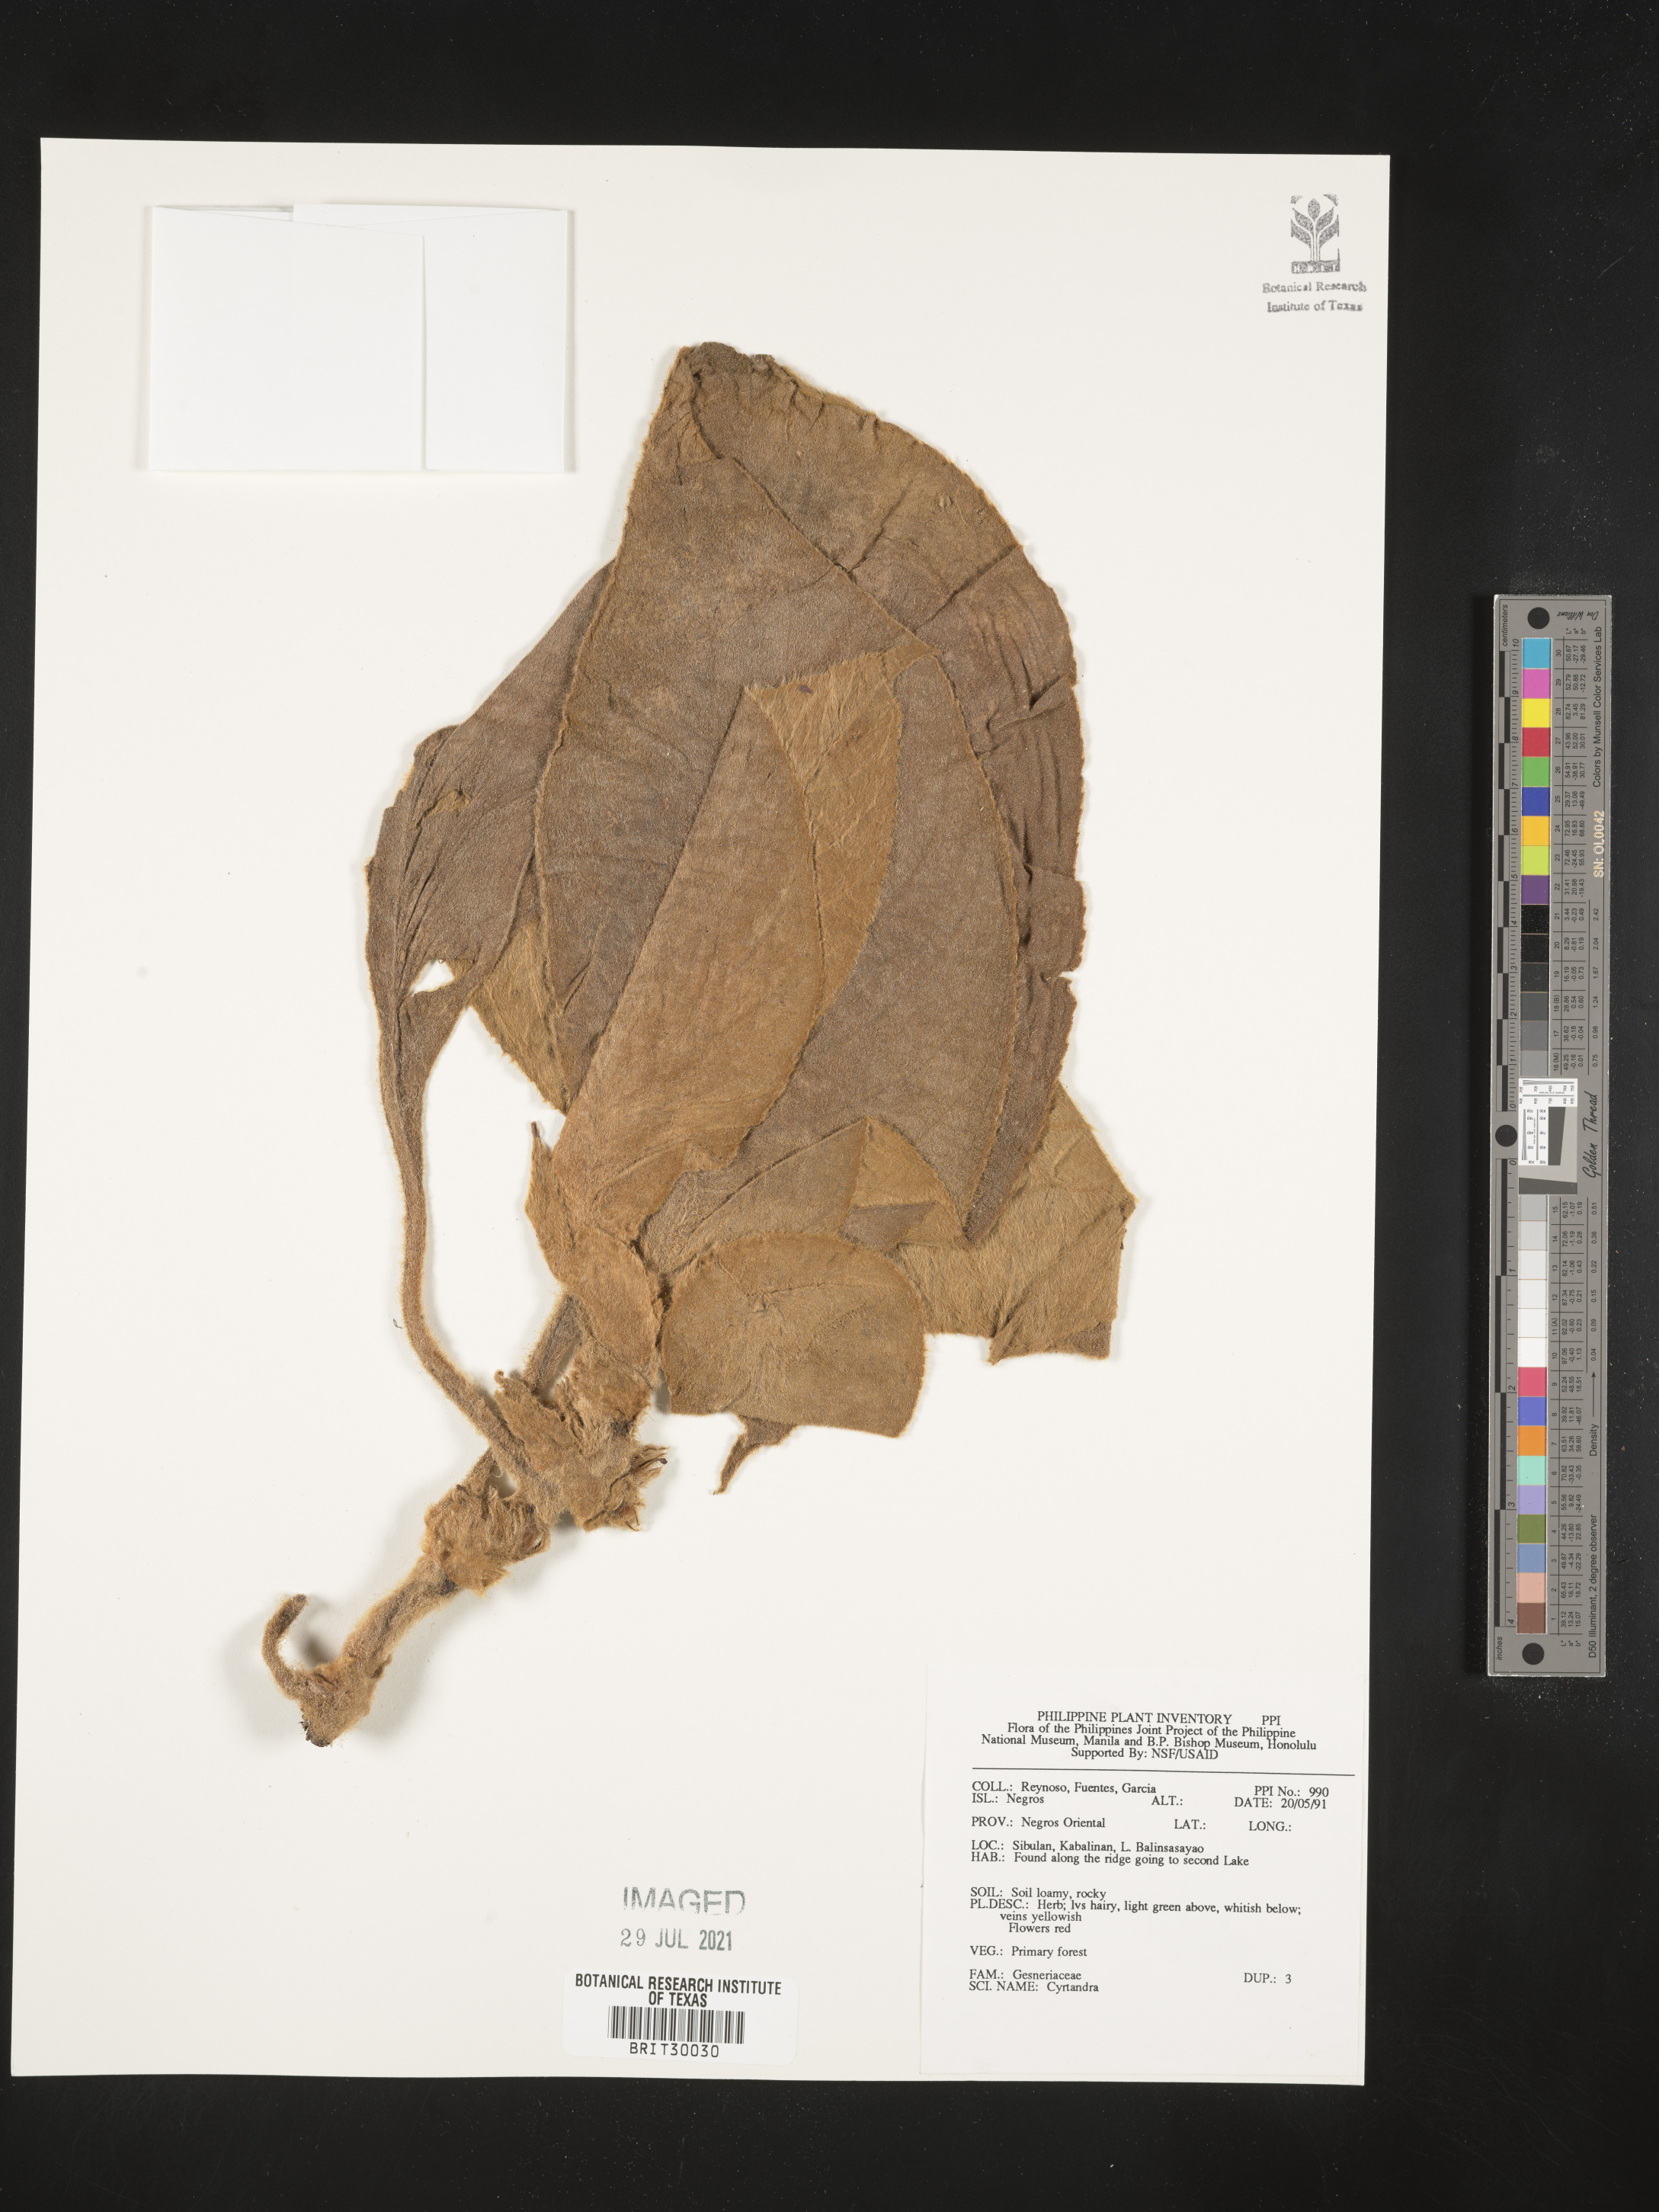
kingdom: Plantae
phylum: Tracheophyta
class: Magnoliopsida
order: Lamiales
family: Gesneriaceae
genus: Cyrtandra
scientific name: Cyrtandra
